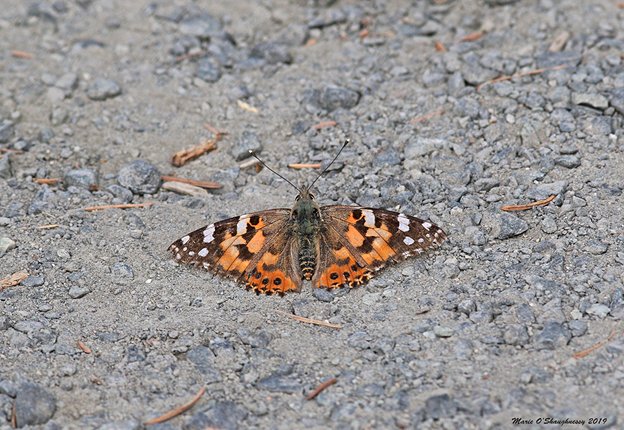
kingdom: Animalia
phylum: Arthropoda
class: Insecta
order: Lepidoptera
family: Nymphalidae
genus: Vanessa
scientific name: Vanessa cardui
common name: Painted Lady
